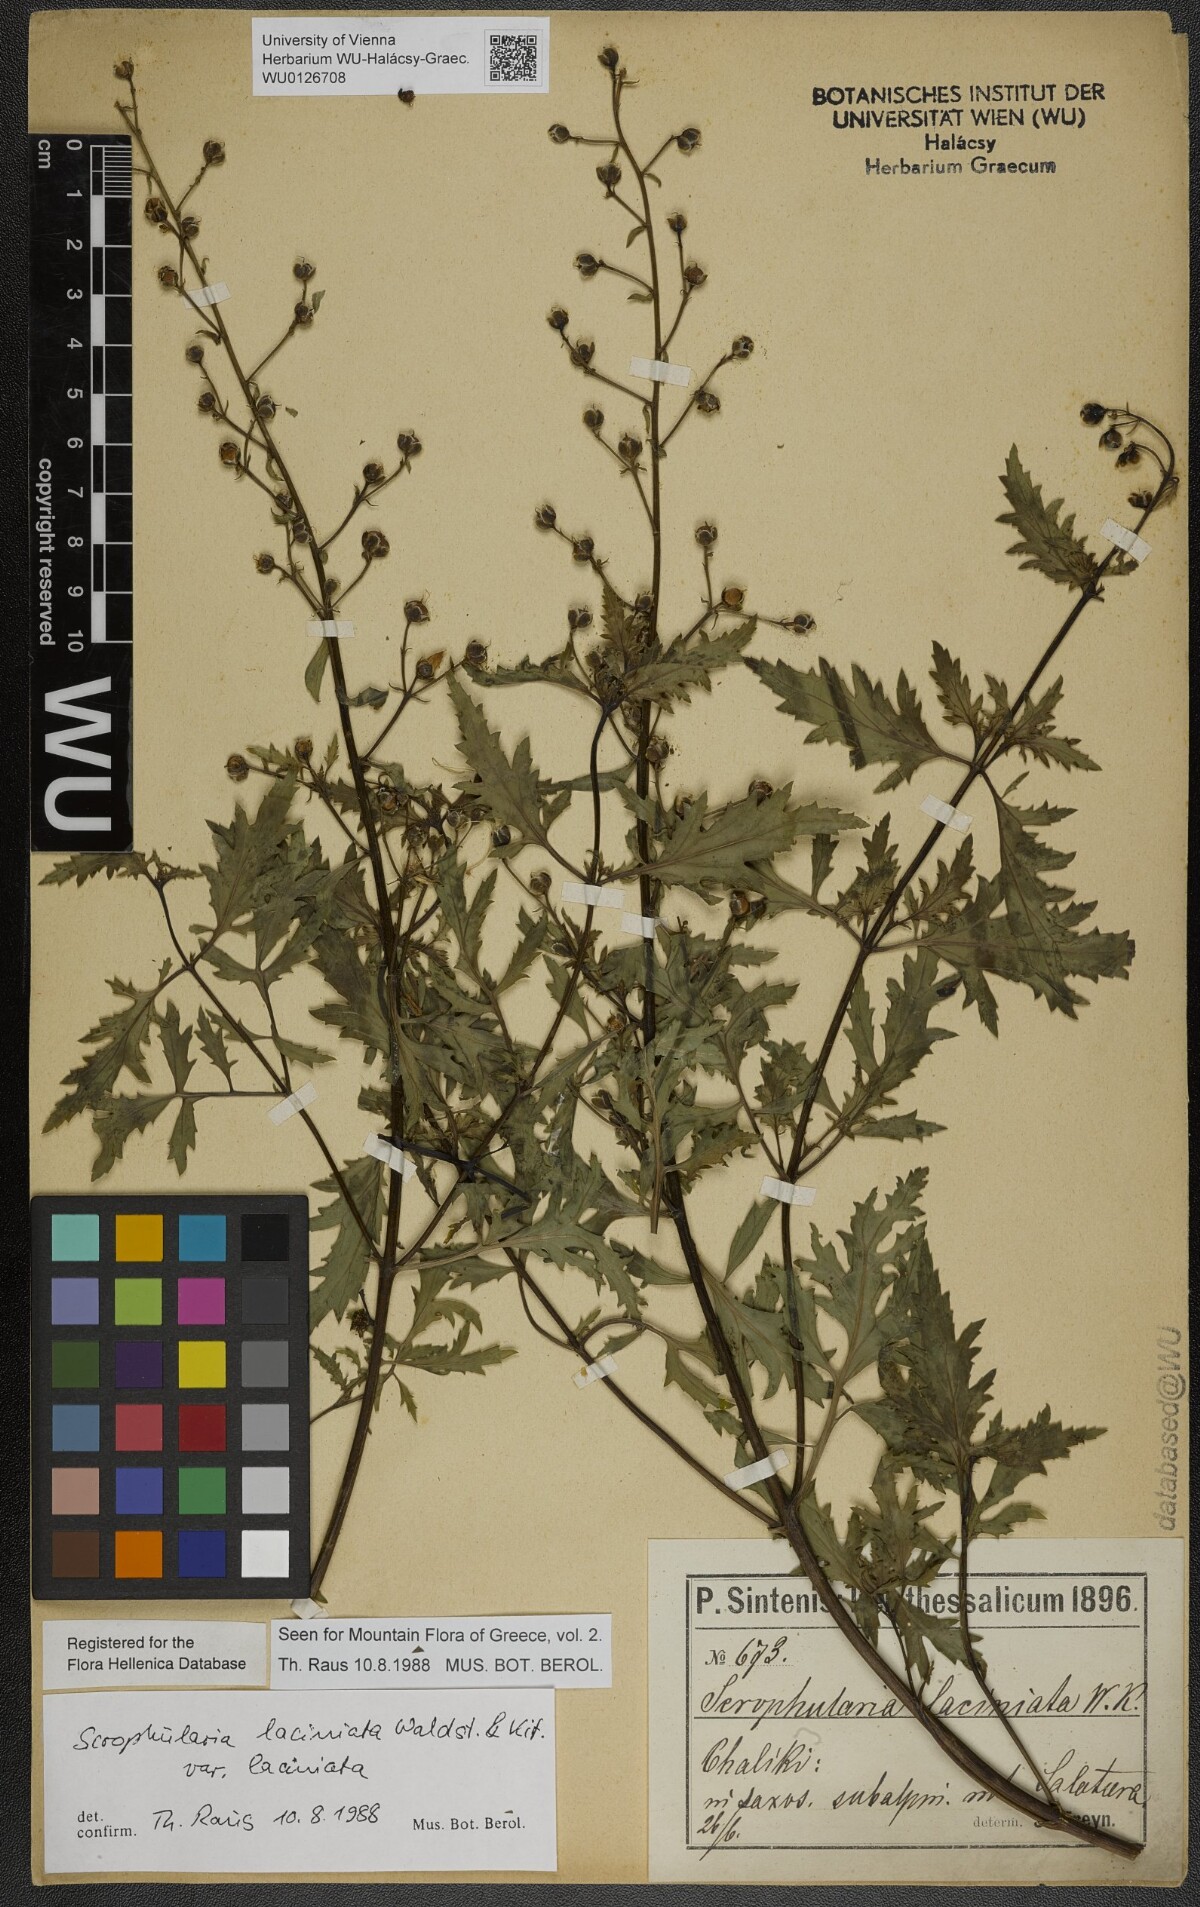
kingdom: Plantae
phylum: Tracheophyta
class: Magnoliopsida
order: Lamiales
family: Scrophulariaceae
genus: Scrophularia
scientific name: Scrophularia laciniata
